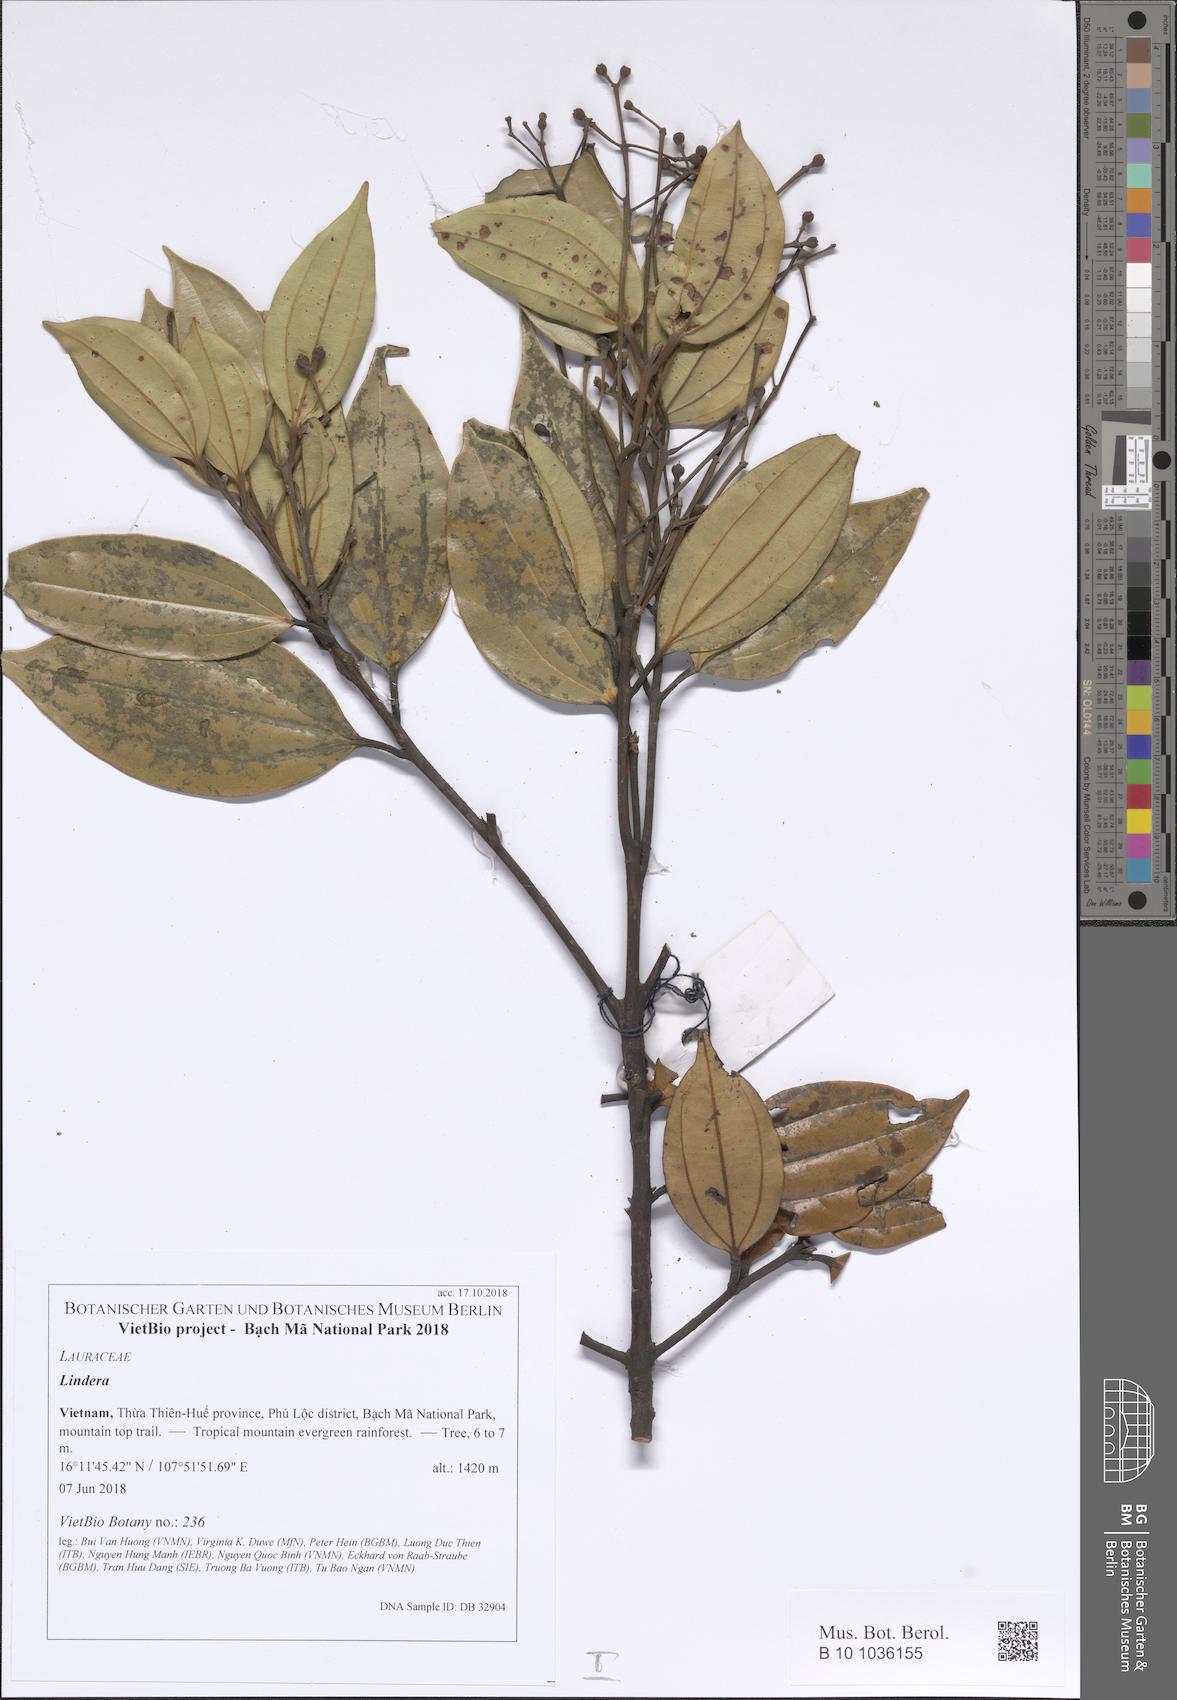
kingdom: Plantae
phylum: Tracheophyta
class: Magnoliopsida
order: Laurales
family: Lauraceae
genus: Cinnamomum
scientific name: Cinnamomum
